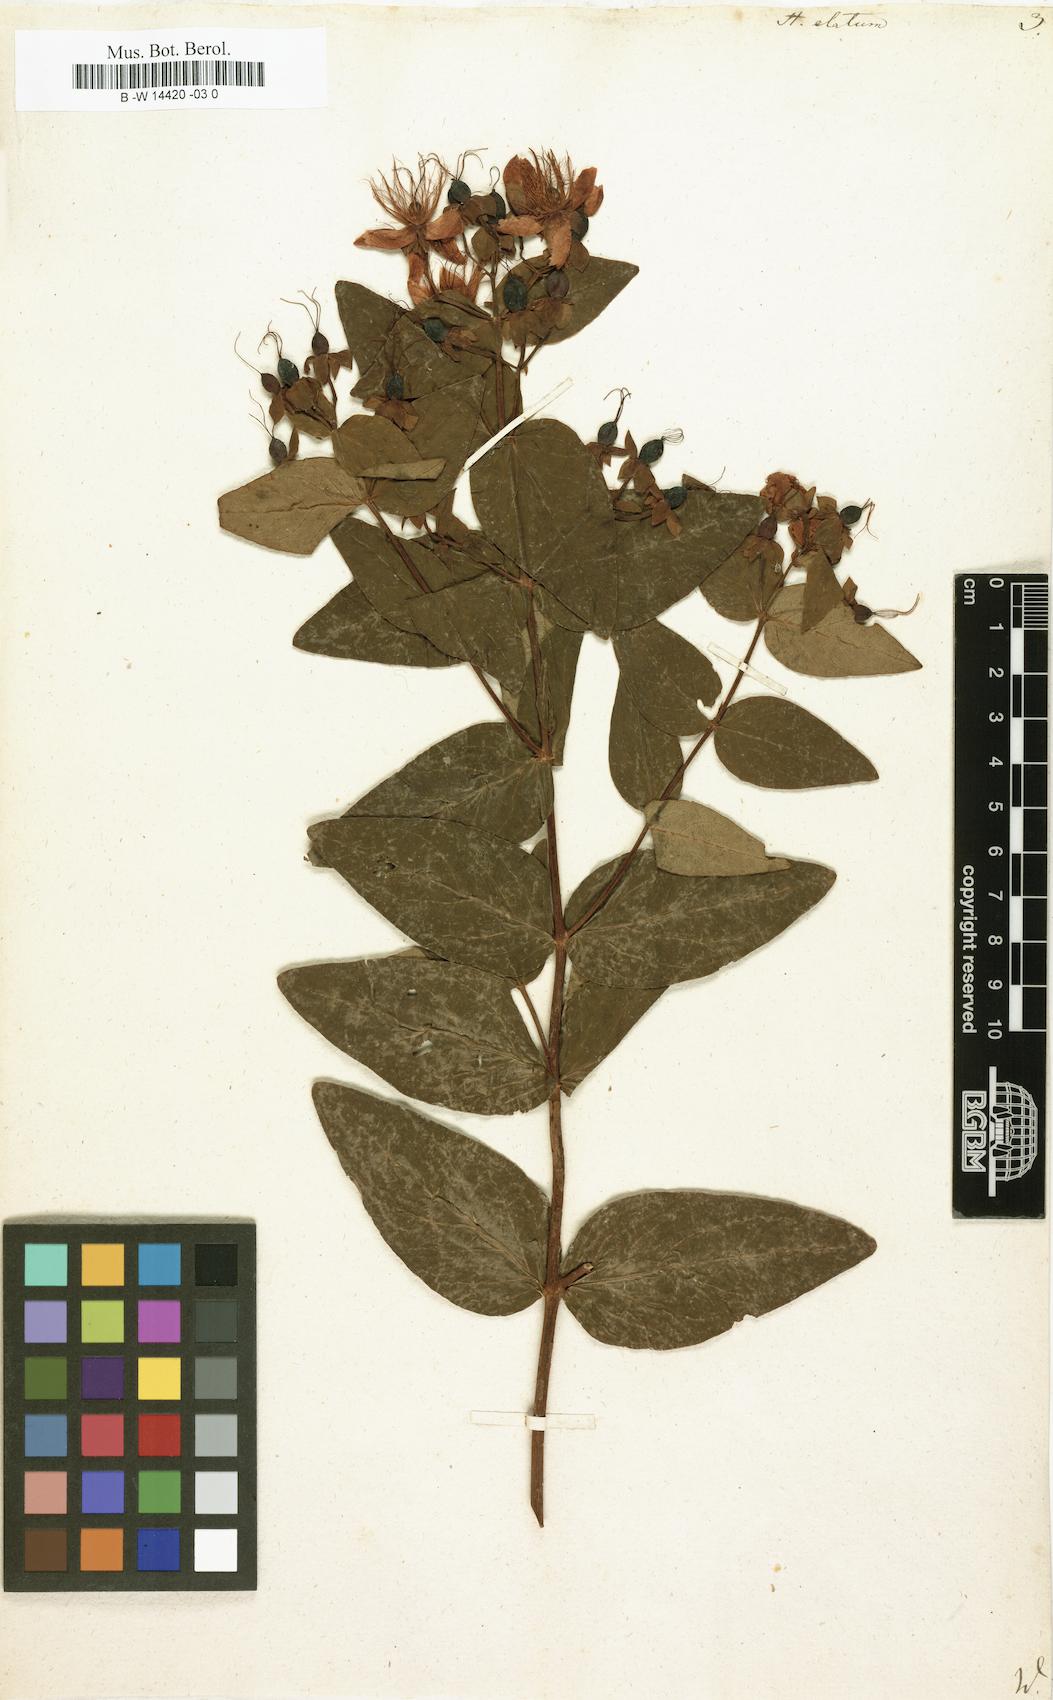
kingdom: Plantae
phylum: Tracheophyta
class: Magnoliopsida
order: Malpighiales
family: Hypericaceae
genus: Hypericum
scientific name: Hypericum inodorum
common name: Tall tutsan
